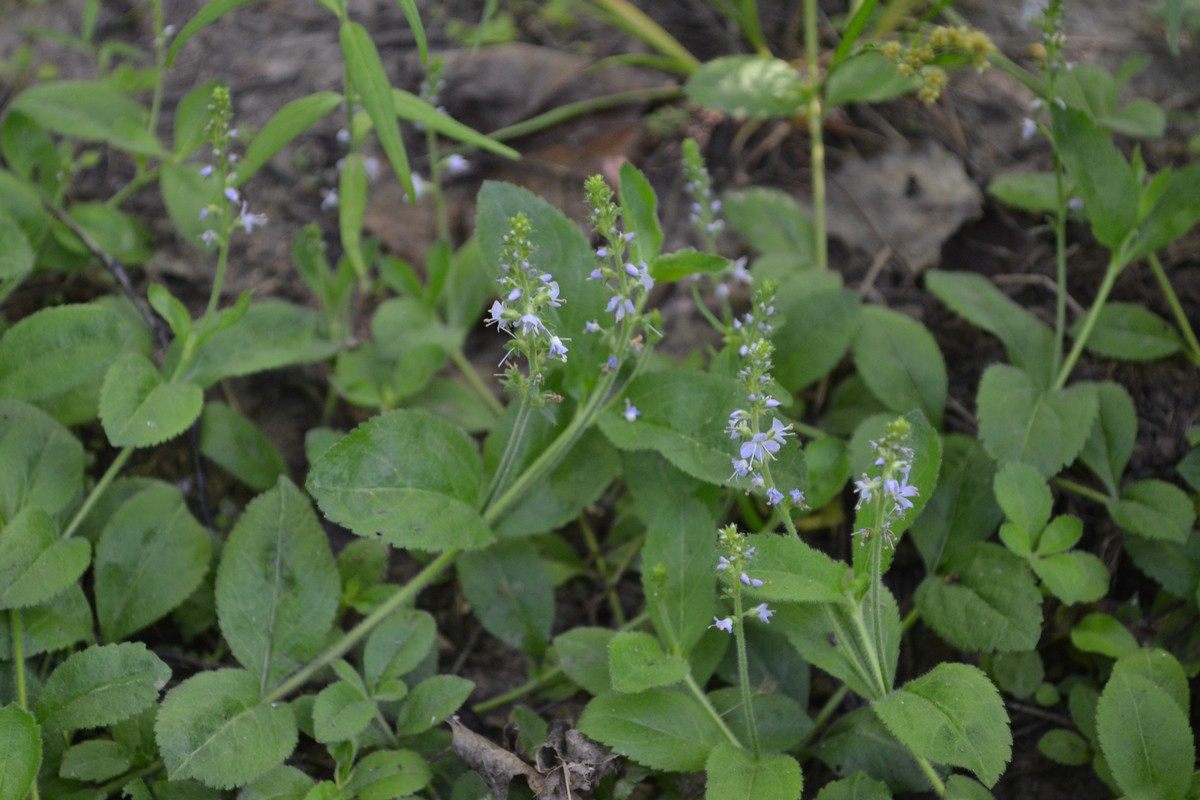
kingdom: Plantae
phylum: Tracheophyta
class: Magnoliopsida
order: Lamiales
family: Plantaginaceae
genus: Veronica
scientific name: Veronica officinalis
